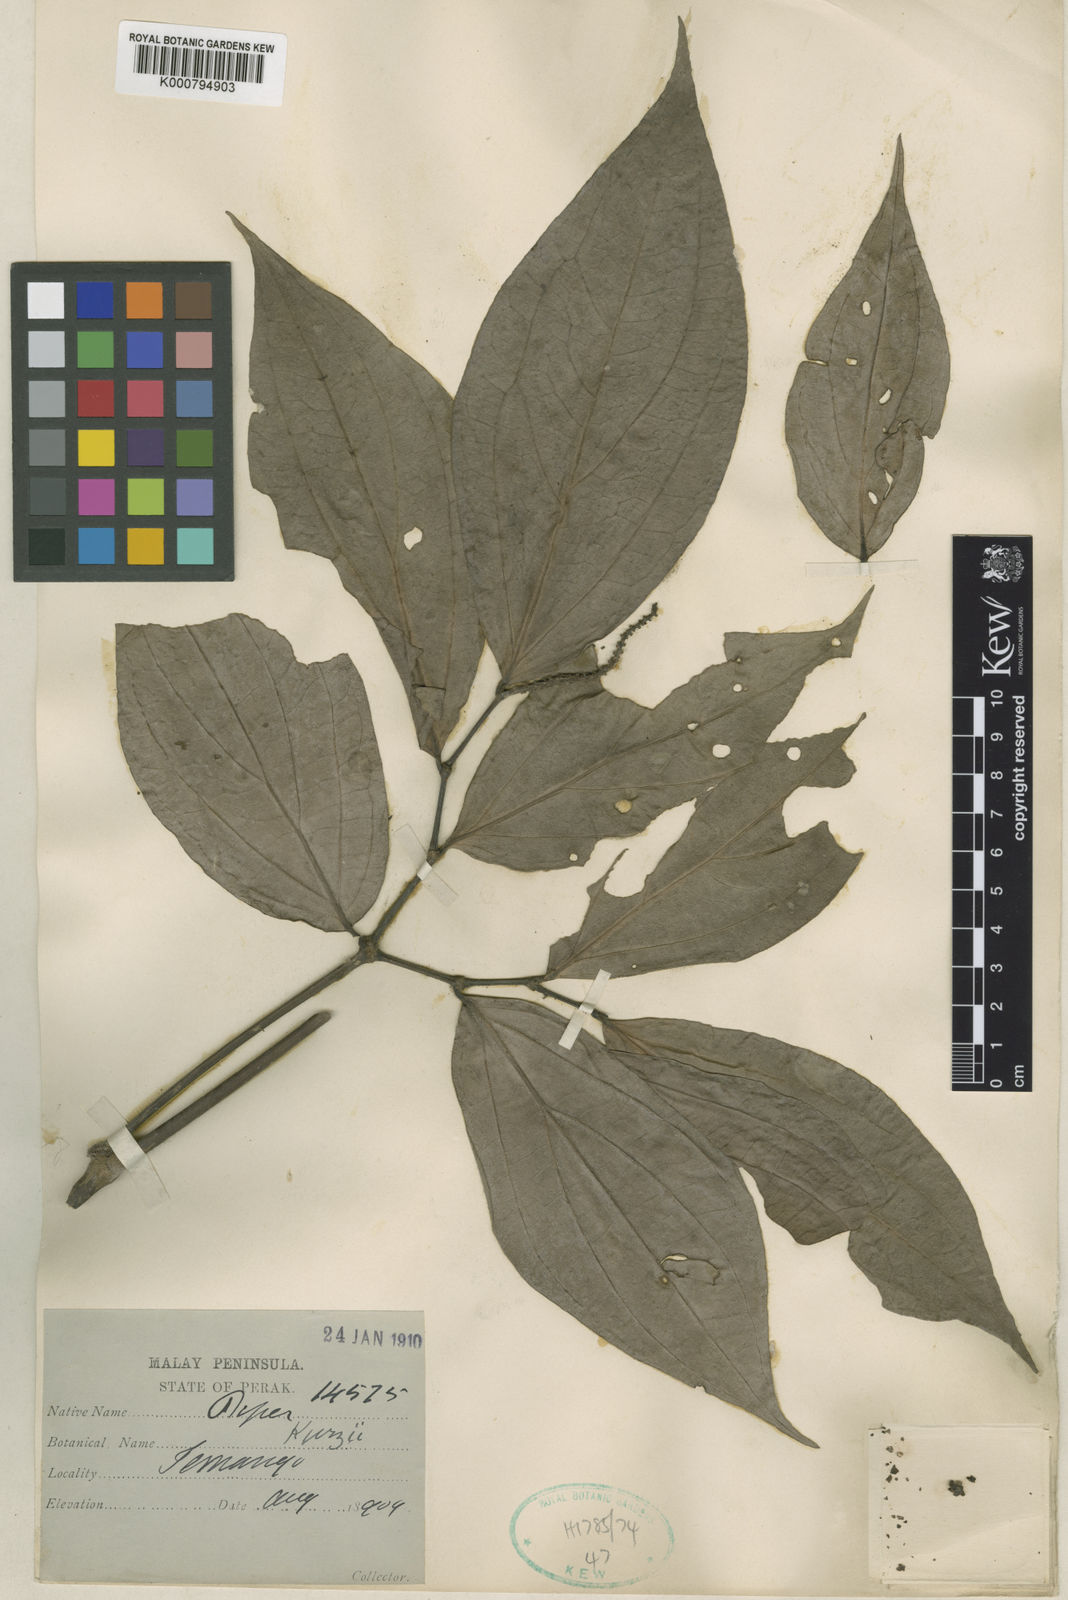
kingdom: Plantae
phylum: Tracheophyta
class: Magnoliopsida
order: Piperales
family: Piperaceae
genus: Piper
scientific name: Piper kurzii
